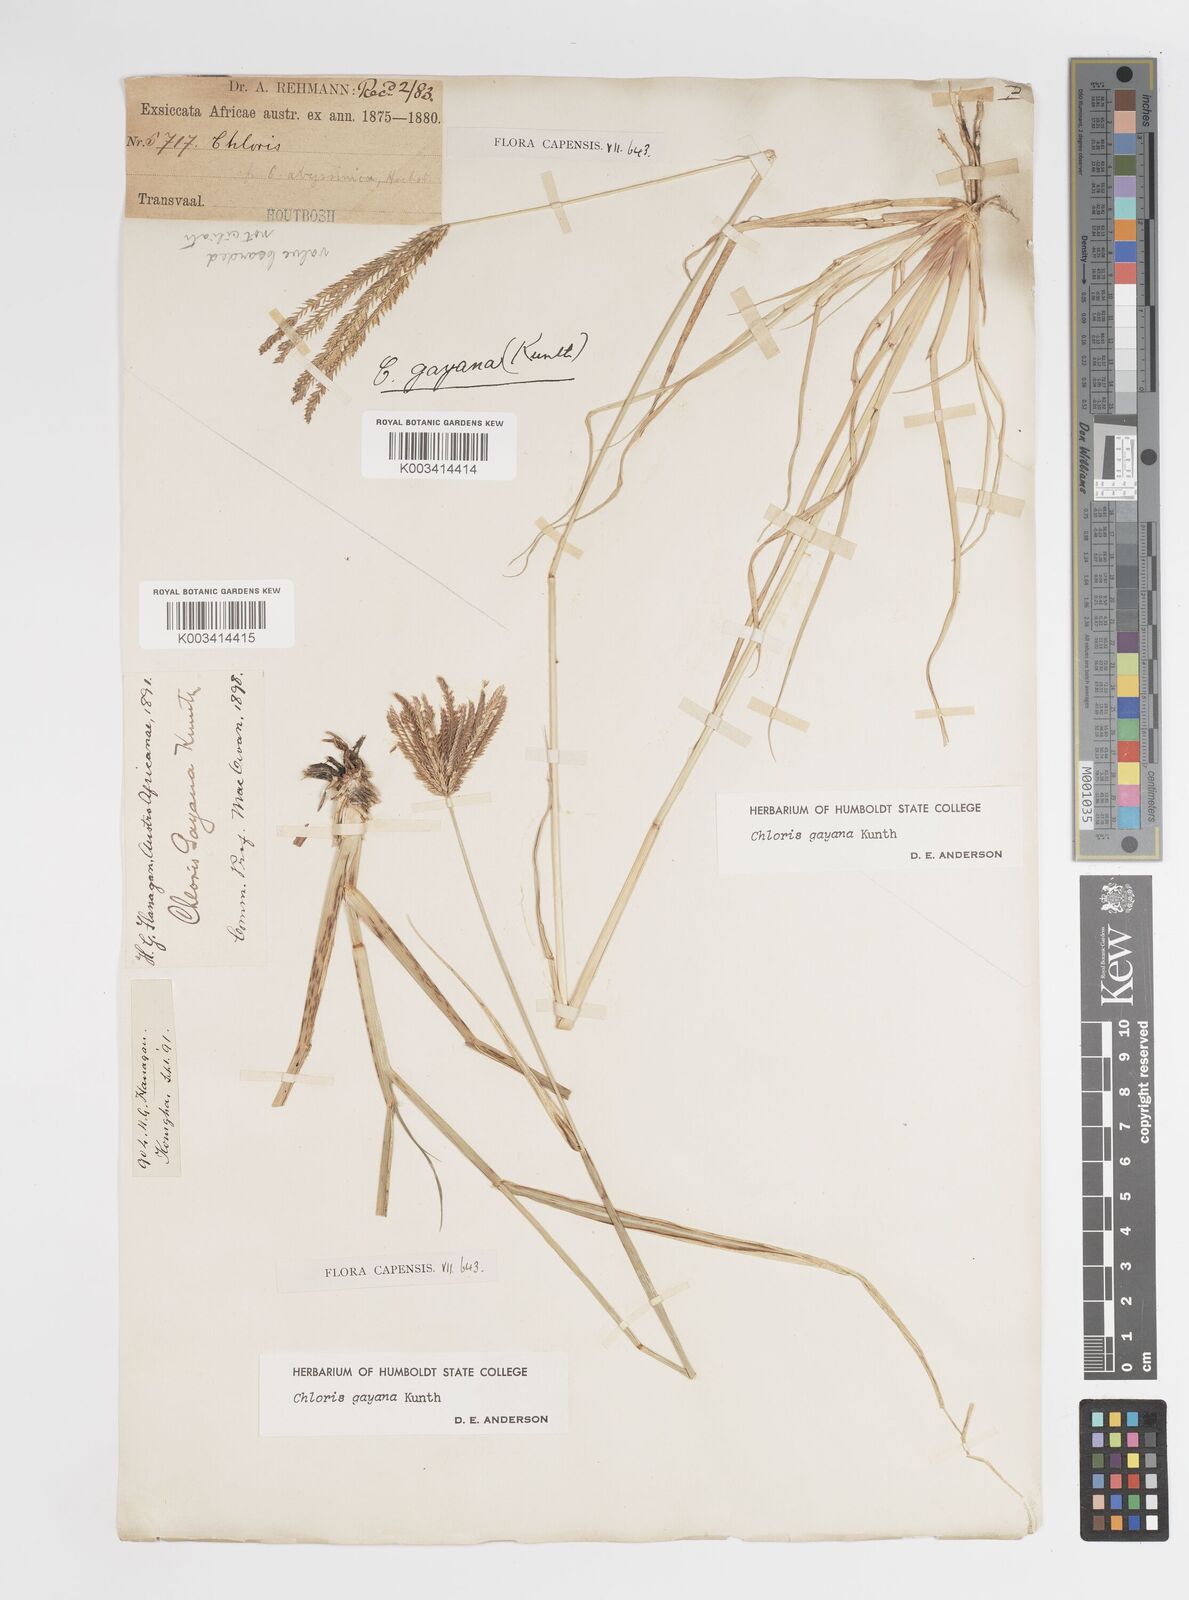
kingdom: Plantae
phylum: Tracheophyta
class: Liliopsida
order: Poales
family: Poaceae
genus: Chloris
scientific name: Chloris gayana
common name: Rhodes grass
